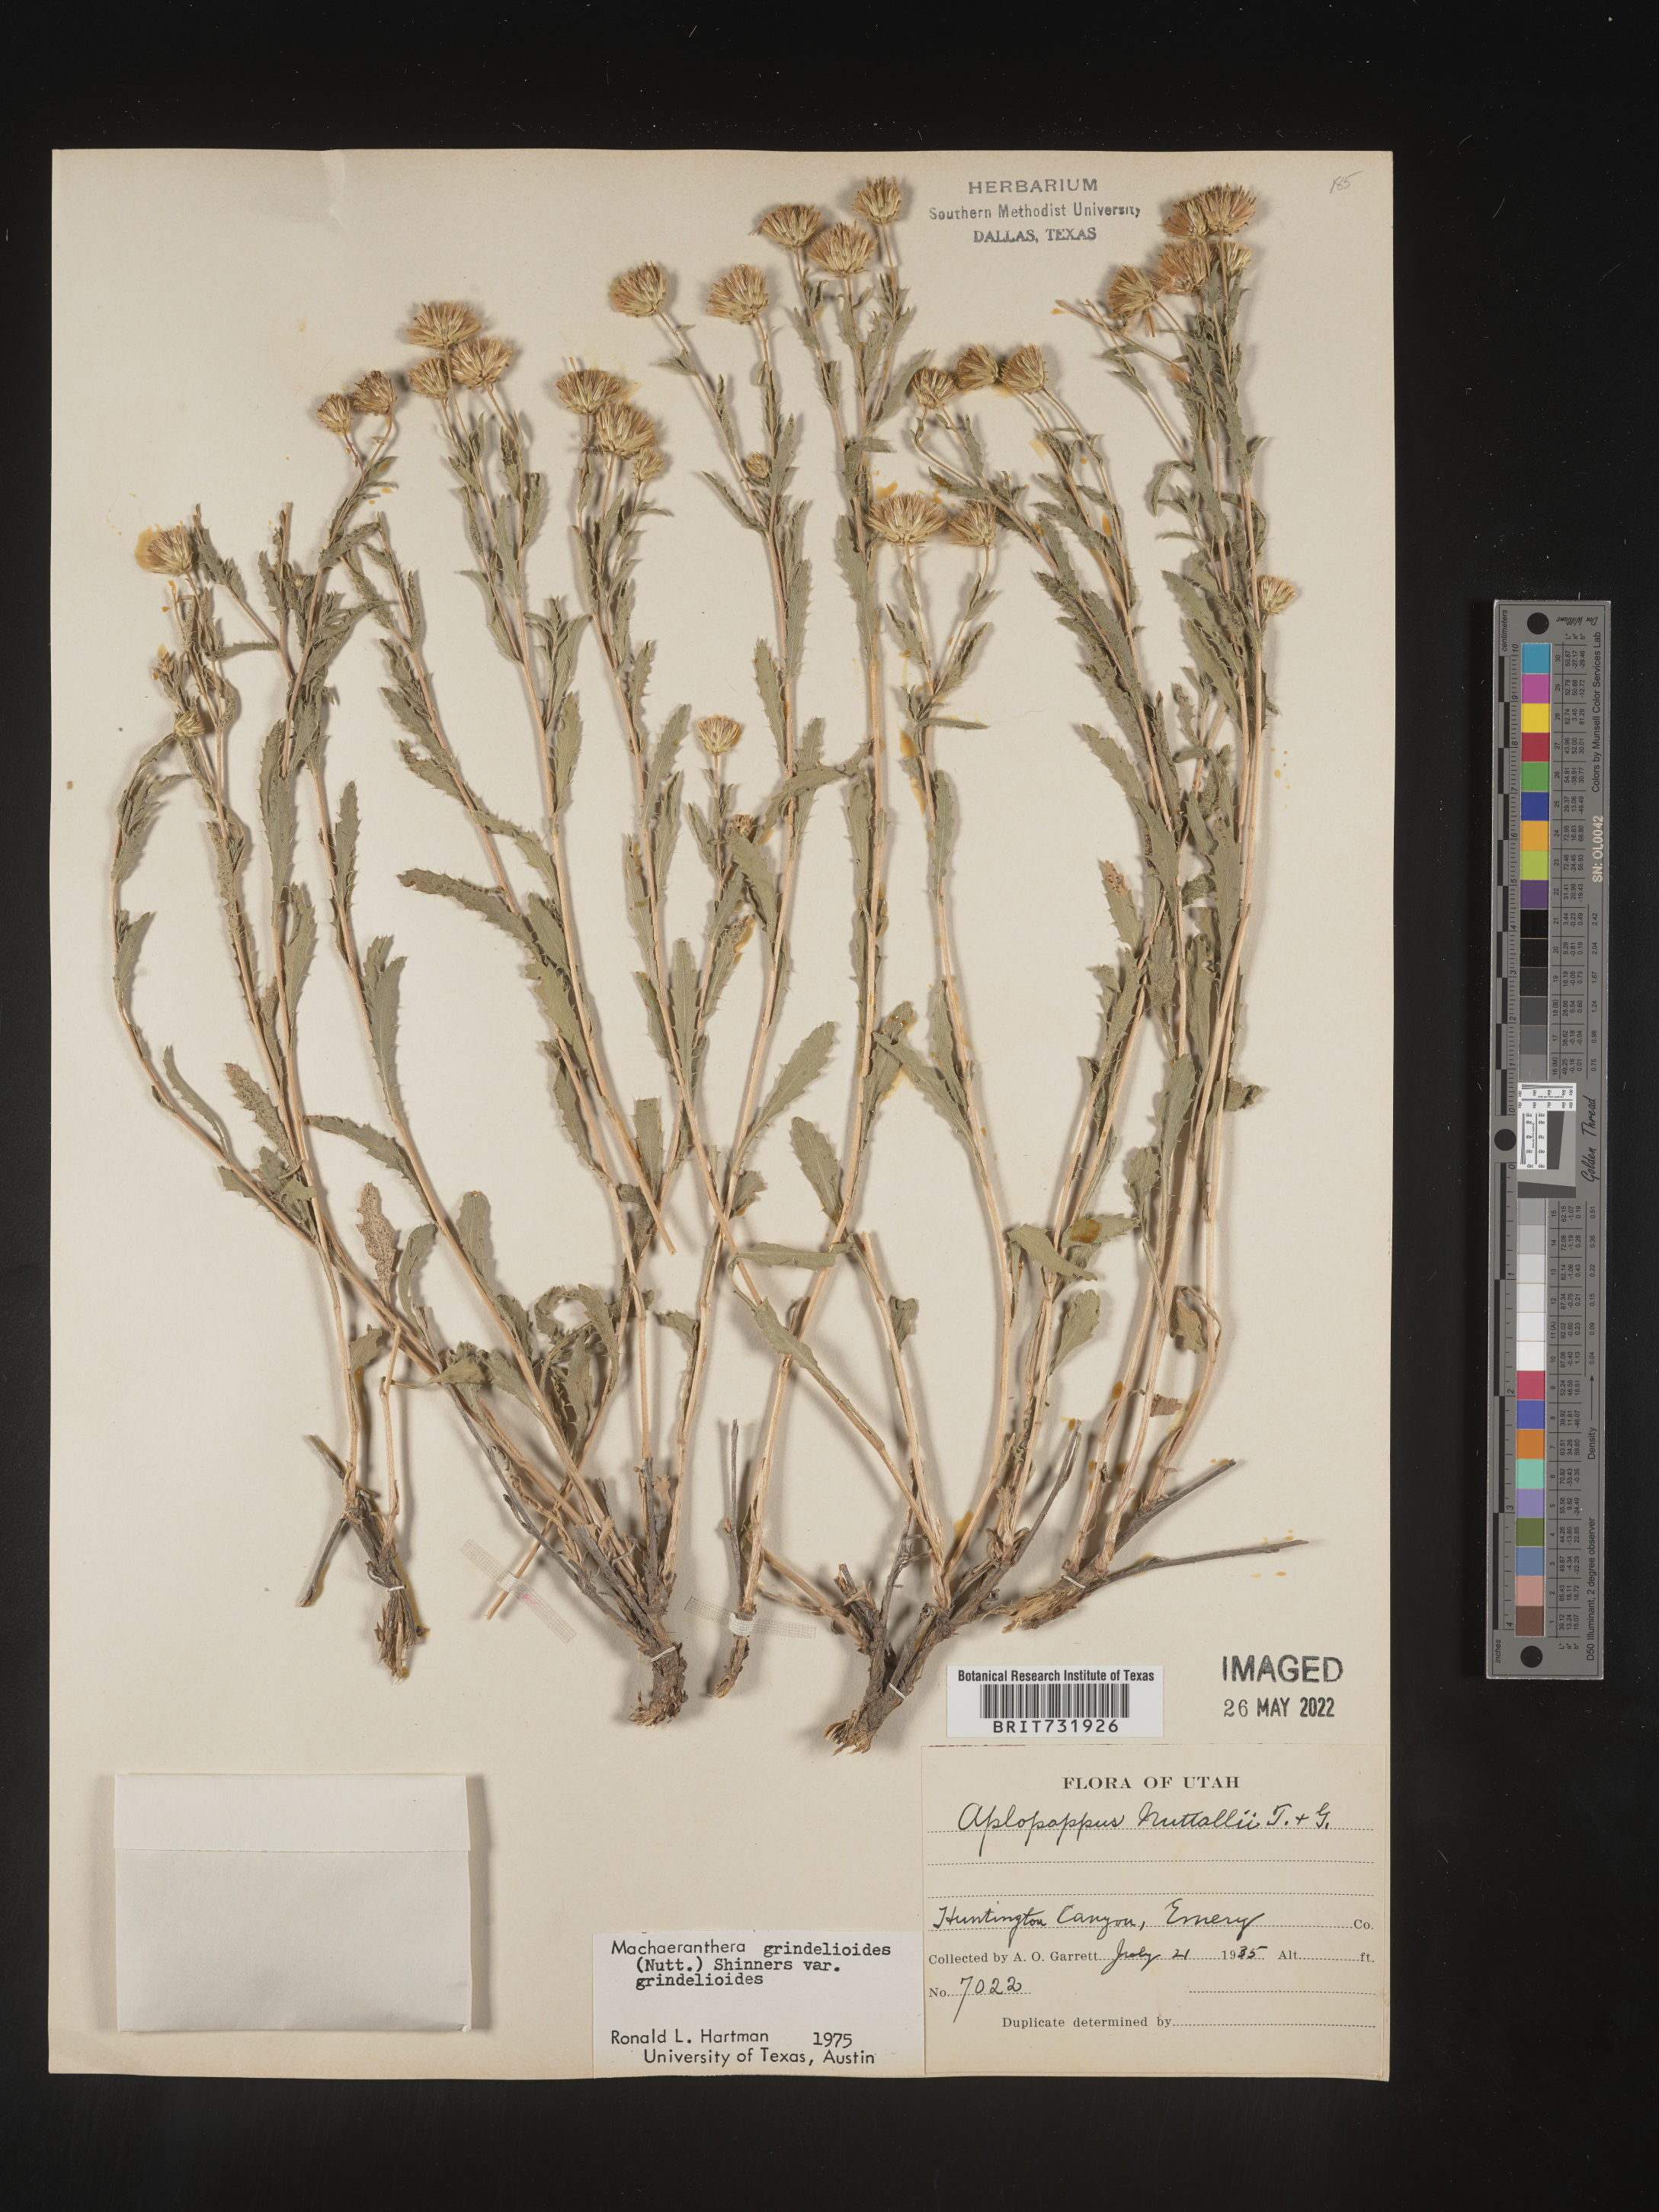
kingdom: Plantae
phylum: Tracheophyta
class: Magnoliopsida
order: Asterales
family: Asteraceae
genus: Xanthisma
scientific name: Xanthisma grindelioides
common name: Goldenweed
